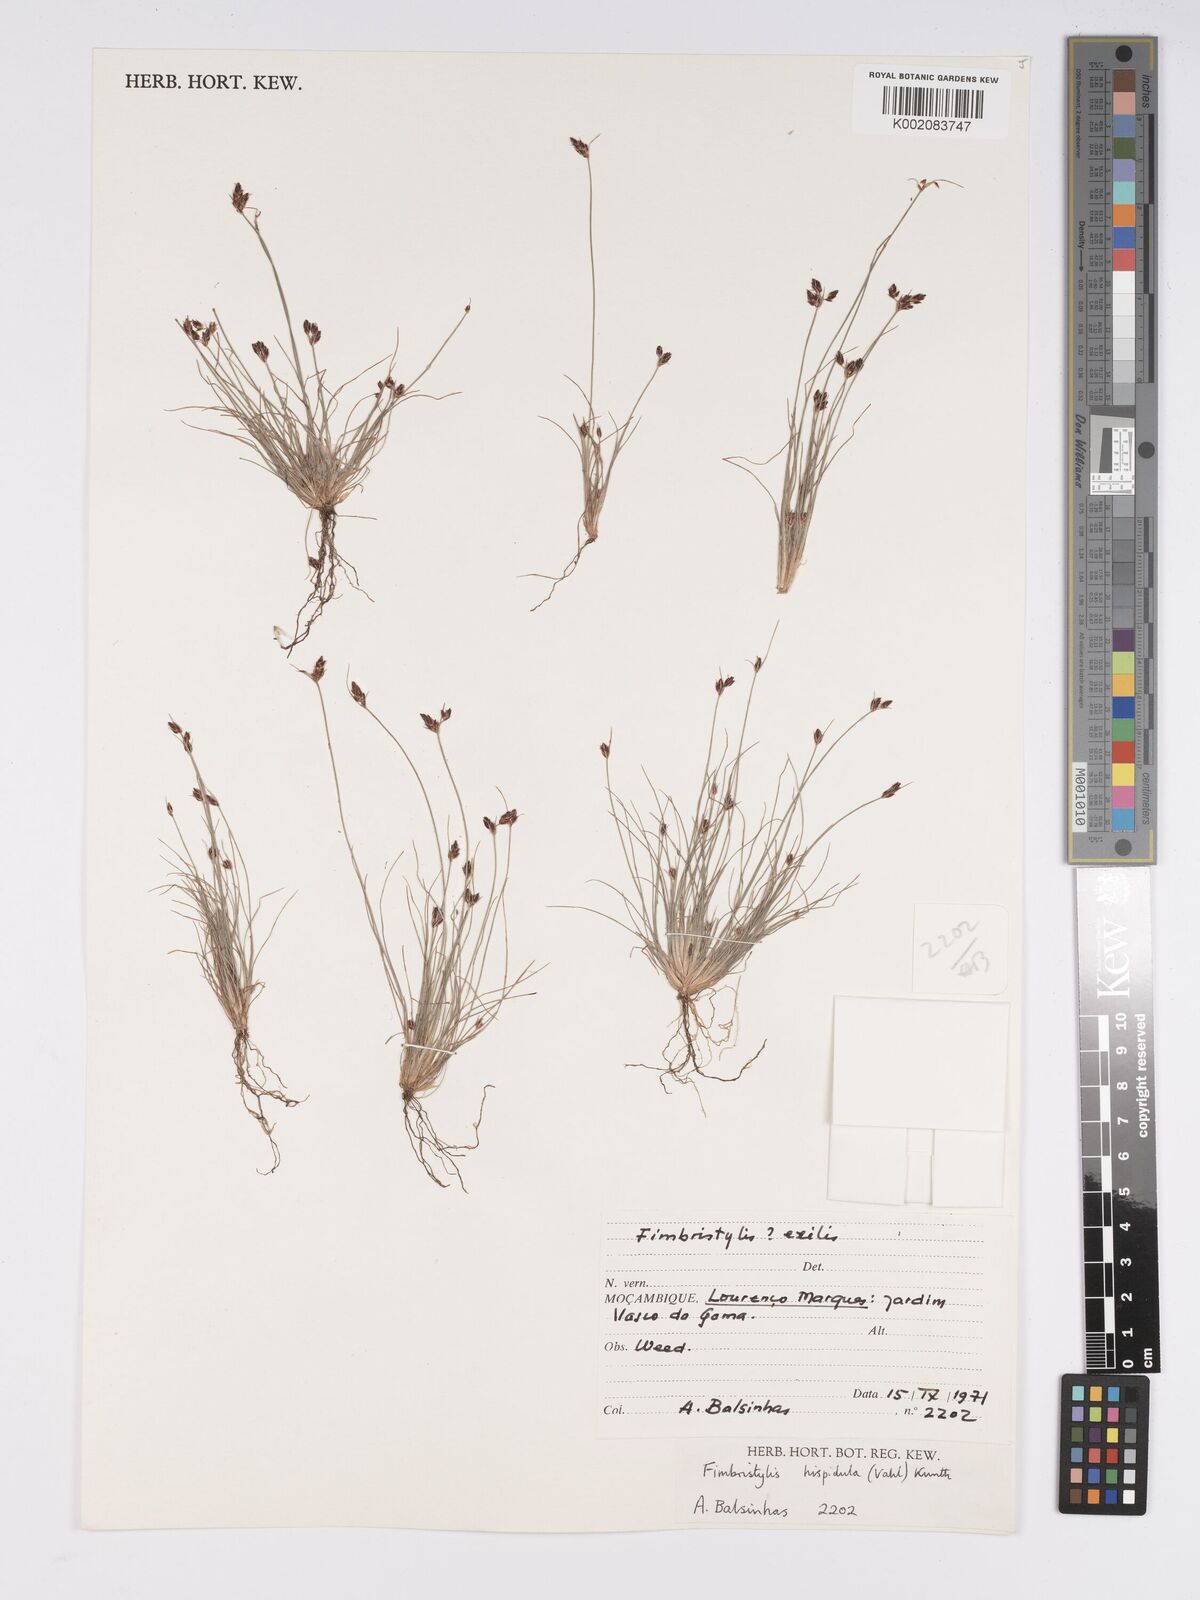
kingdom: Plantae
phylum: Tracheophyta
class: Liliopsida
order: Poales
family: Cyperaceae
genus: Bulbostylis
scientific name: Bulbostylis hispidula
